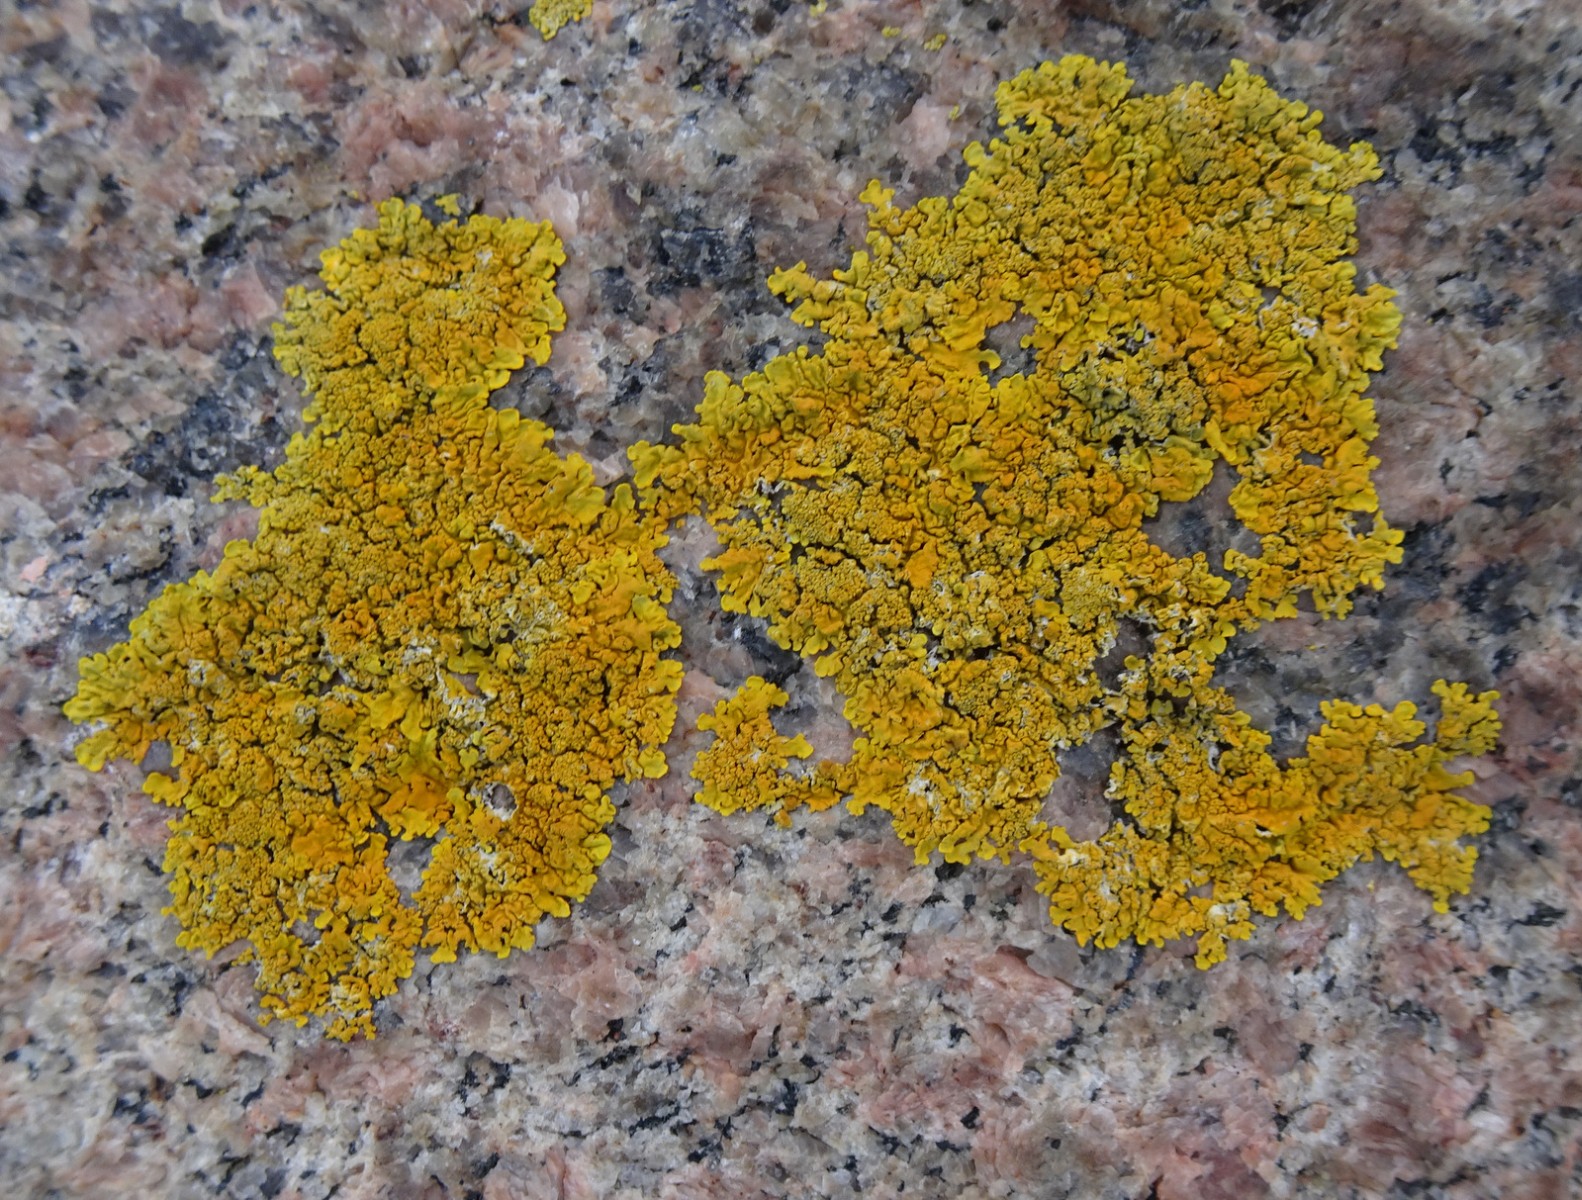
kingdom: Fungi
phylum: Ascomycota
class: Lecanoromycetes
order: Teloschistales
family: Teloschistaceae
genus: Xanthoria
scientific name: Xanthoria calcicola
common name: vortet væggelav
